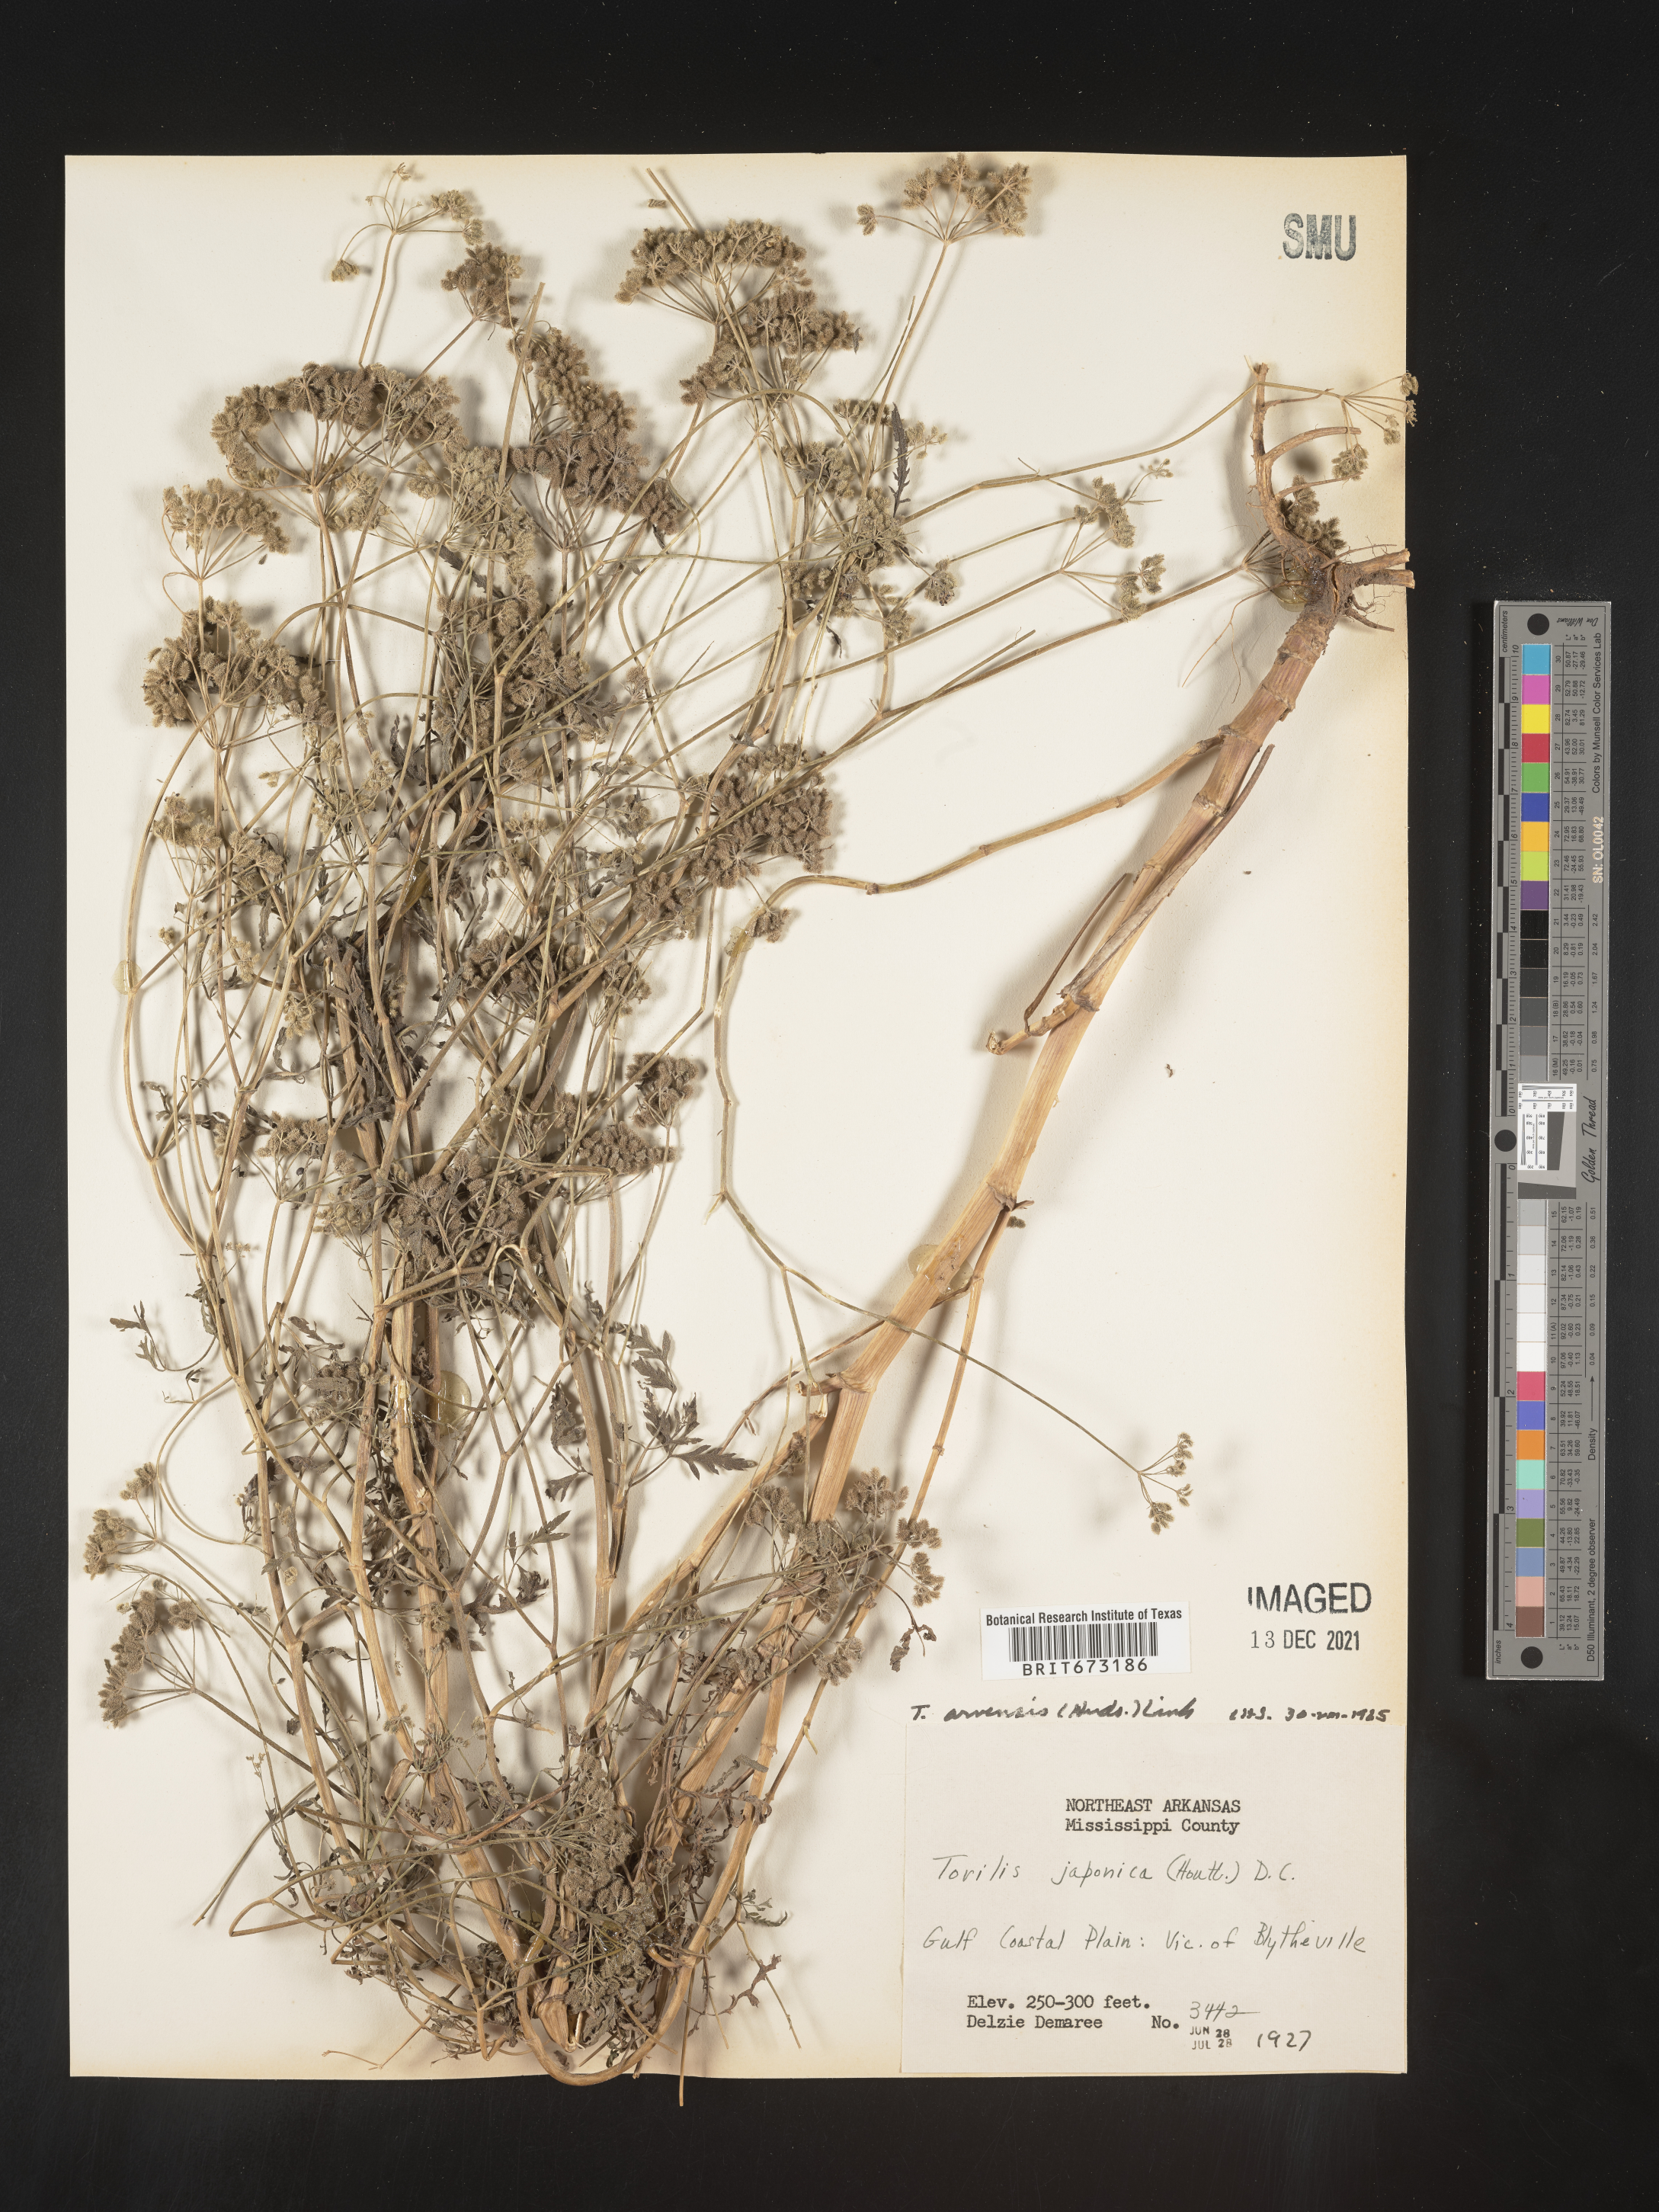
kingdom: Plantae
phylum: Tracheophyta
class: Magnoliopsida
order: Apiales
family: Apiaceae
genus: Torilis
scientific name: Torilis arvensis
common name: Spreading hedge-parsley
